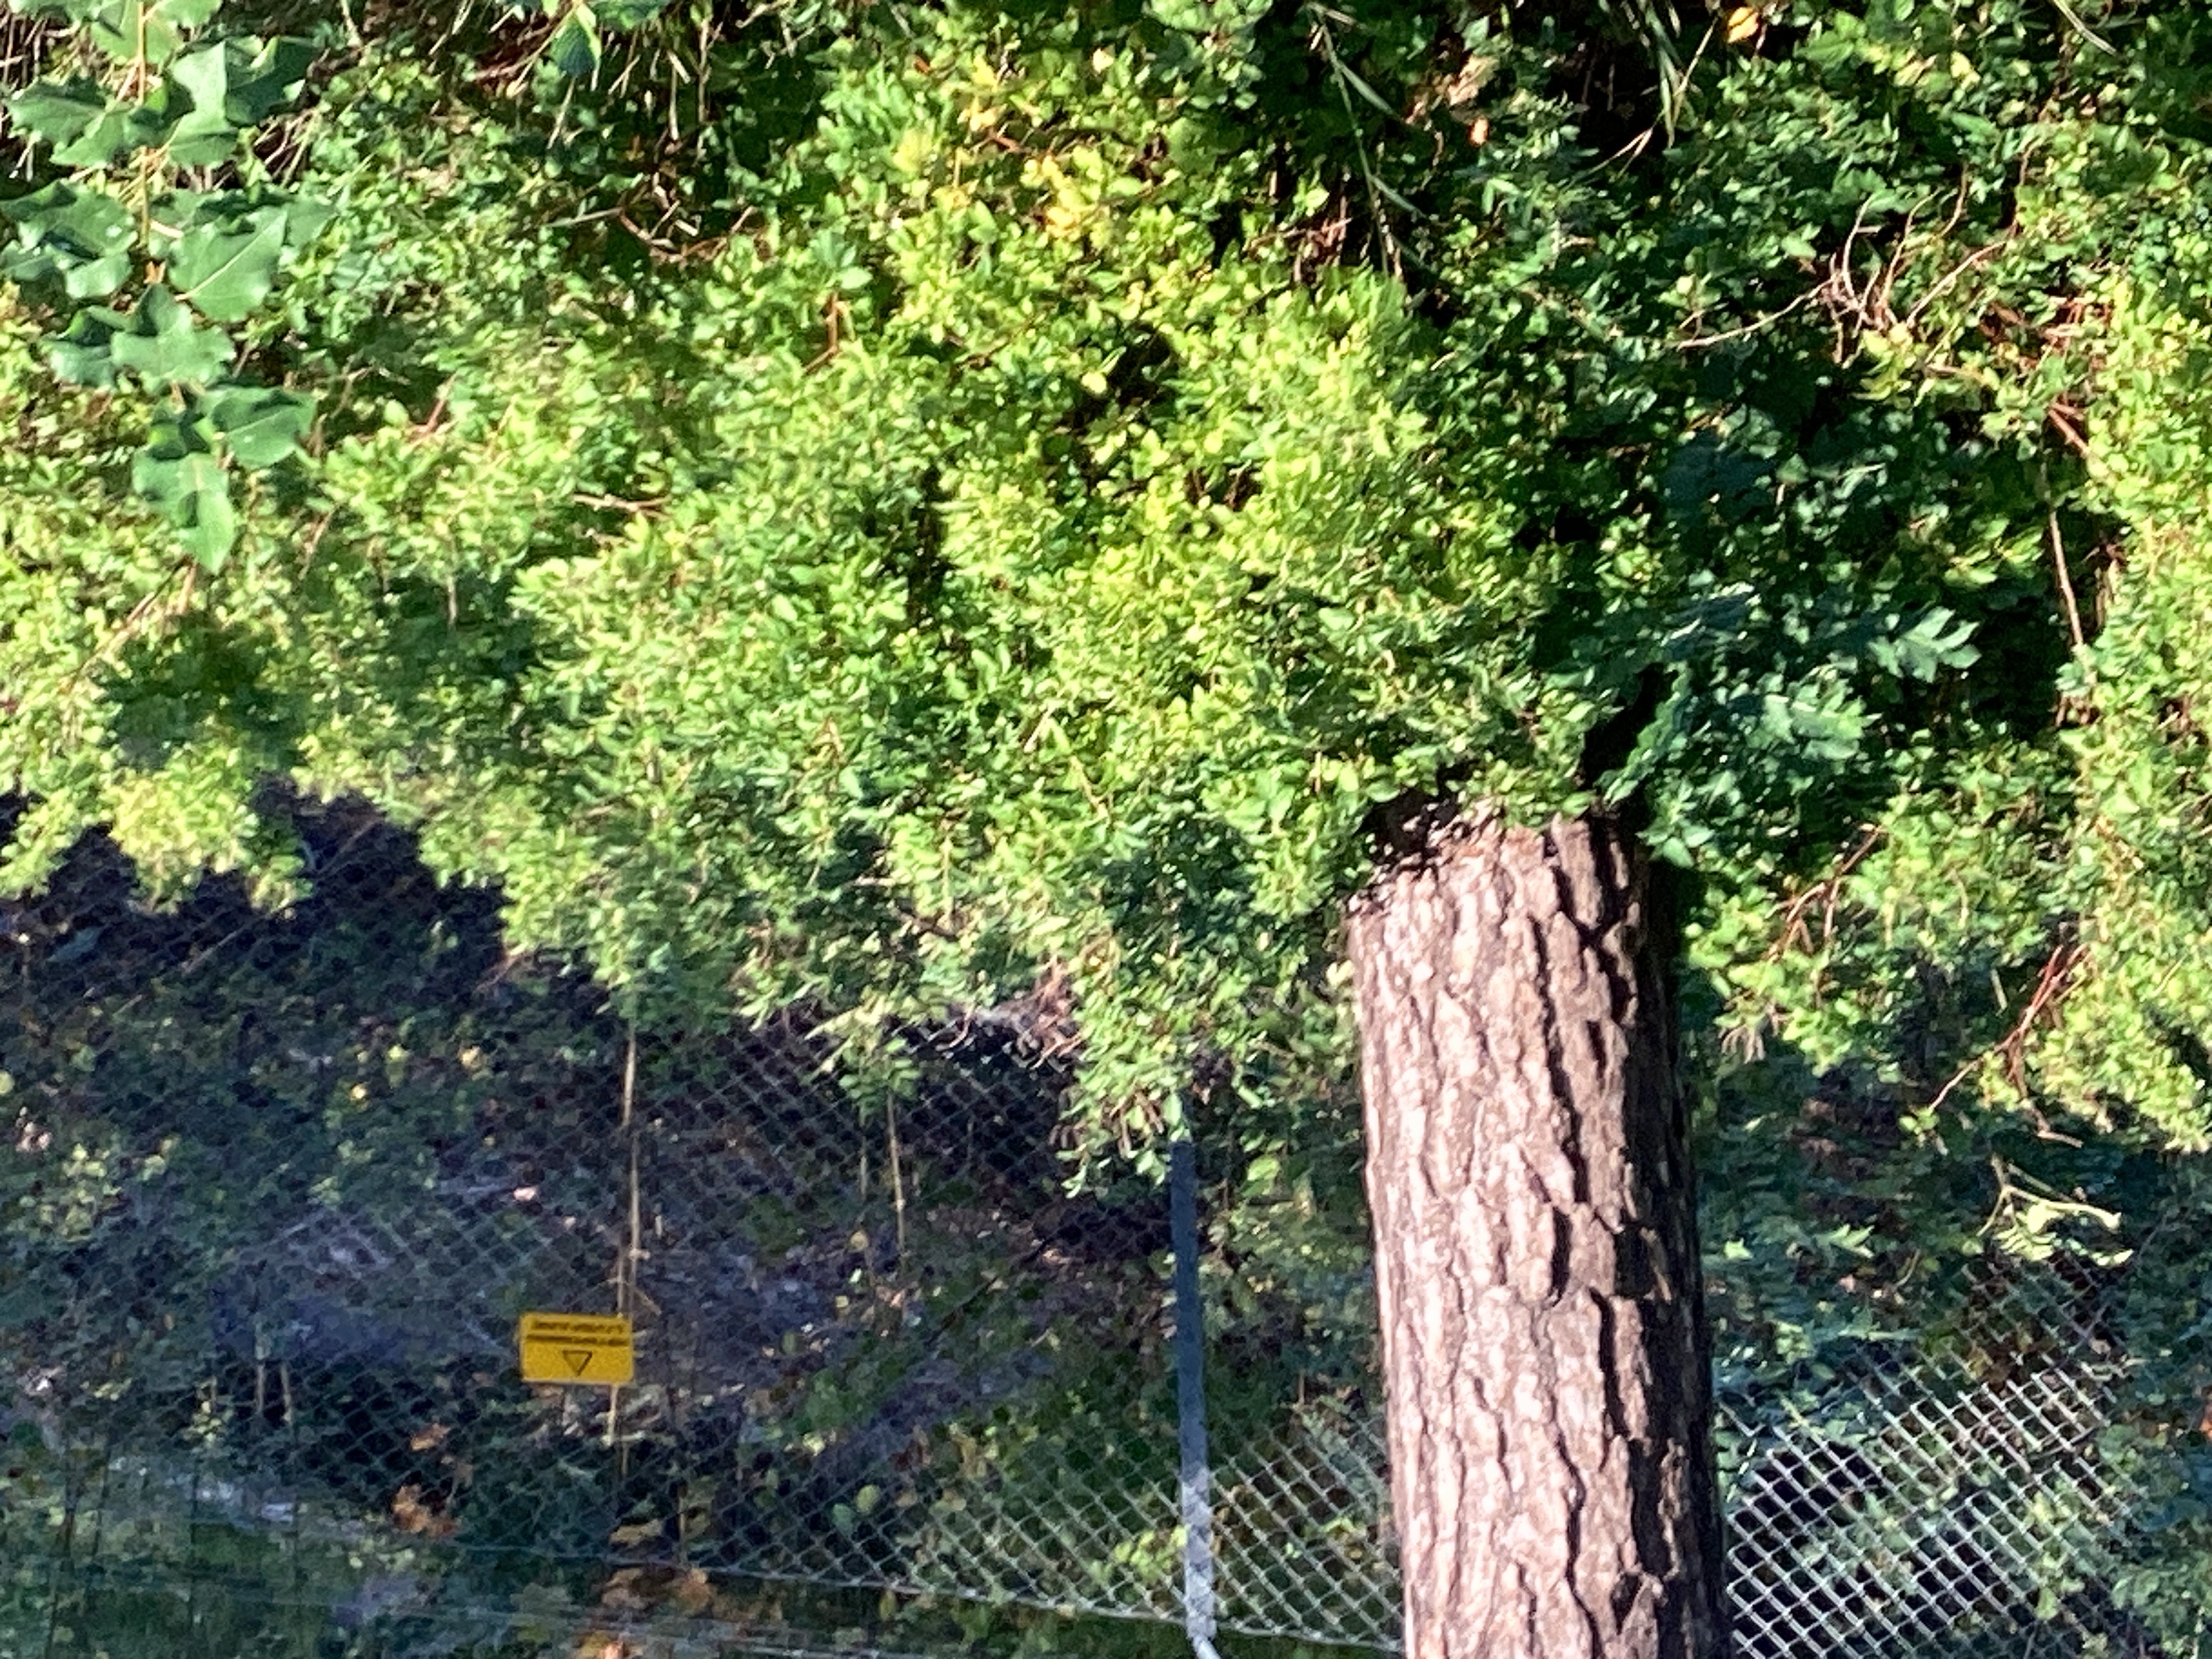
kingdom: Plantae
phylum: Tracheophyta
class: Magnoliopsida
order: Rosales
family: Rosaceae
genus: Spiraea
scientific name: Spiraea salicifolia
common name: hekkspirea
